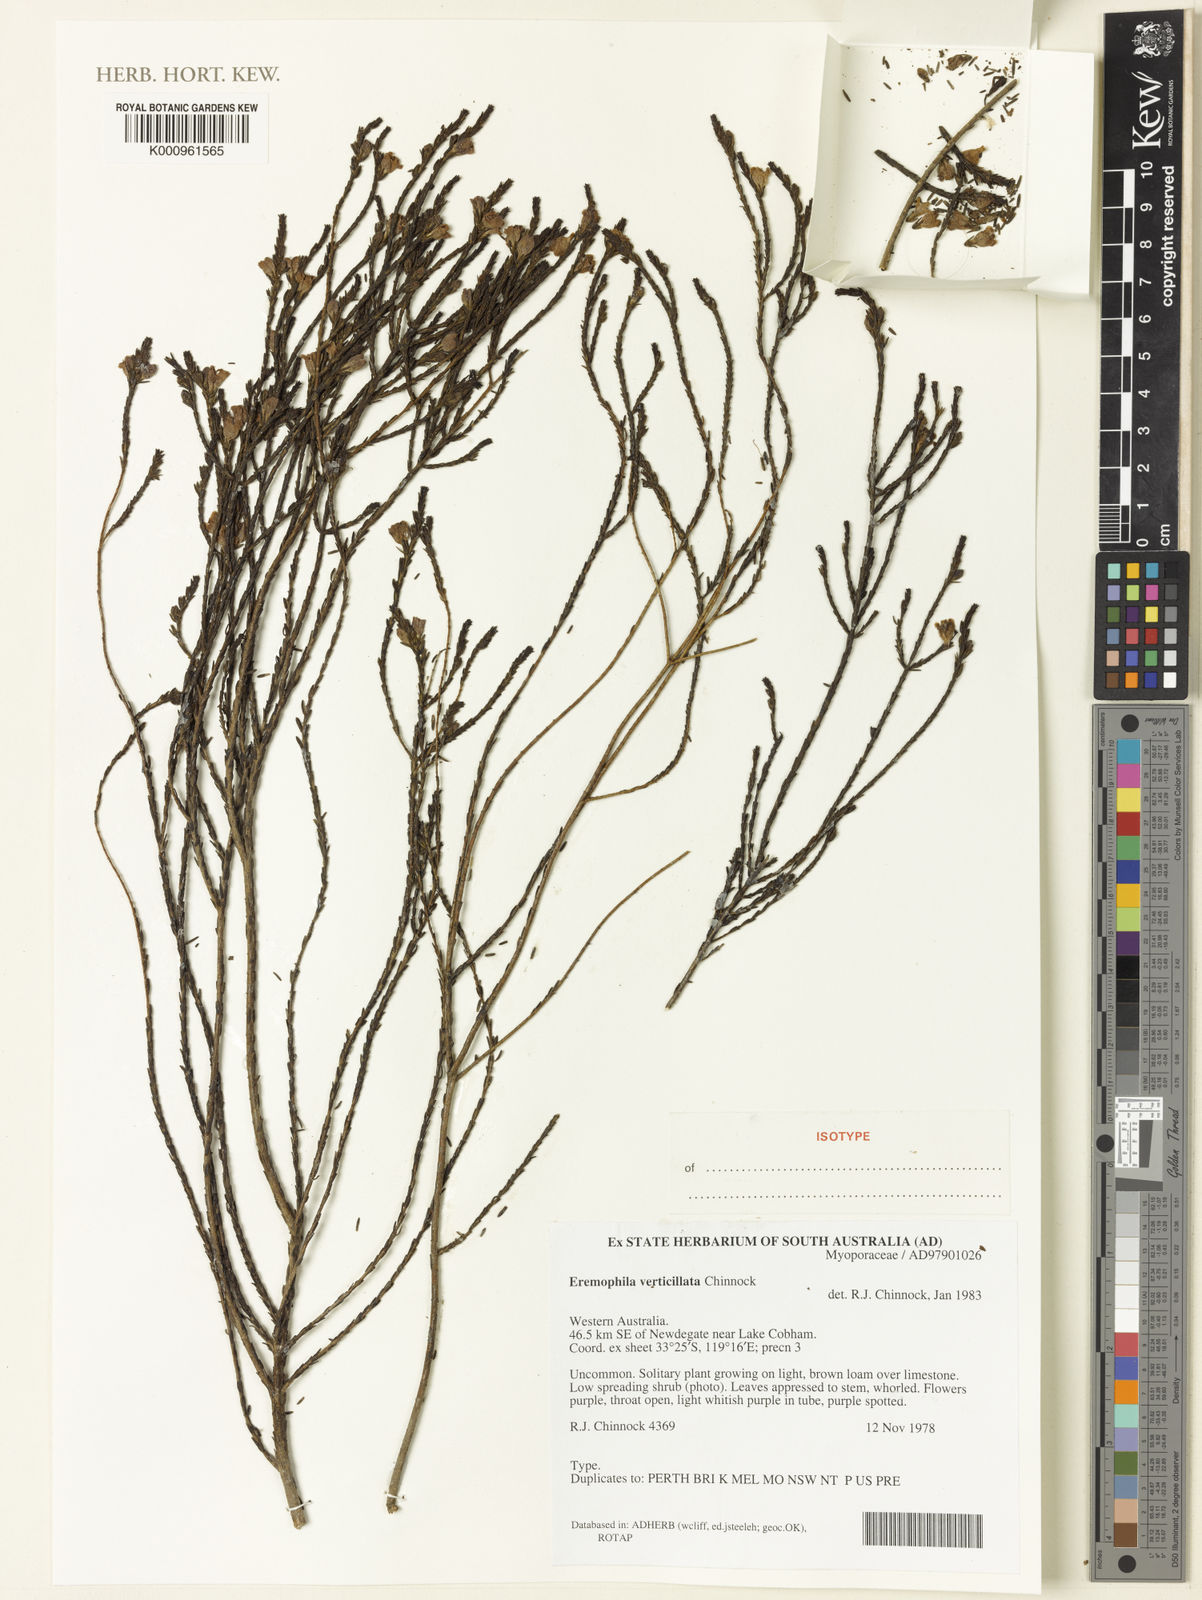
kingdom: Plantae
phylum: Tracheophyta
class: Magnoliopsida
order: Lamiales
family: Scrophulariaceae
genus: Eremophila
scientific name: Eremophila verticillata
